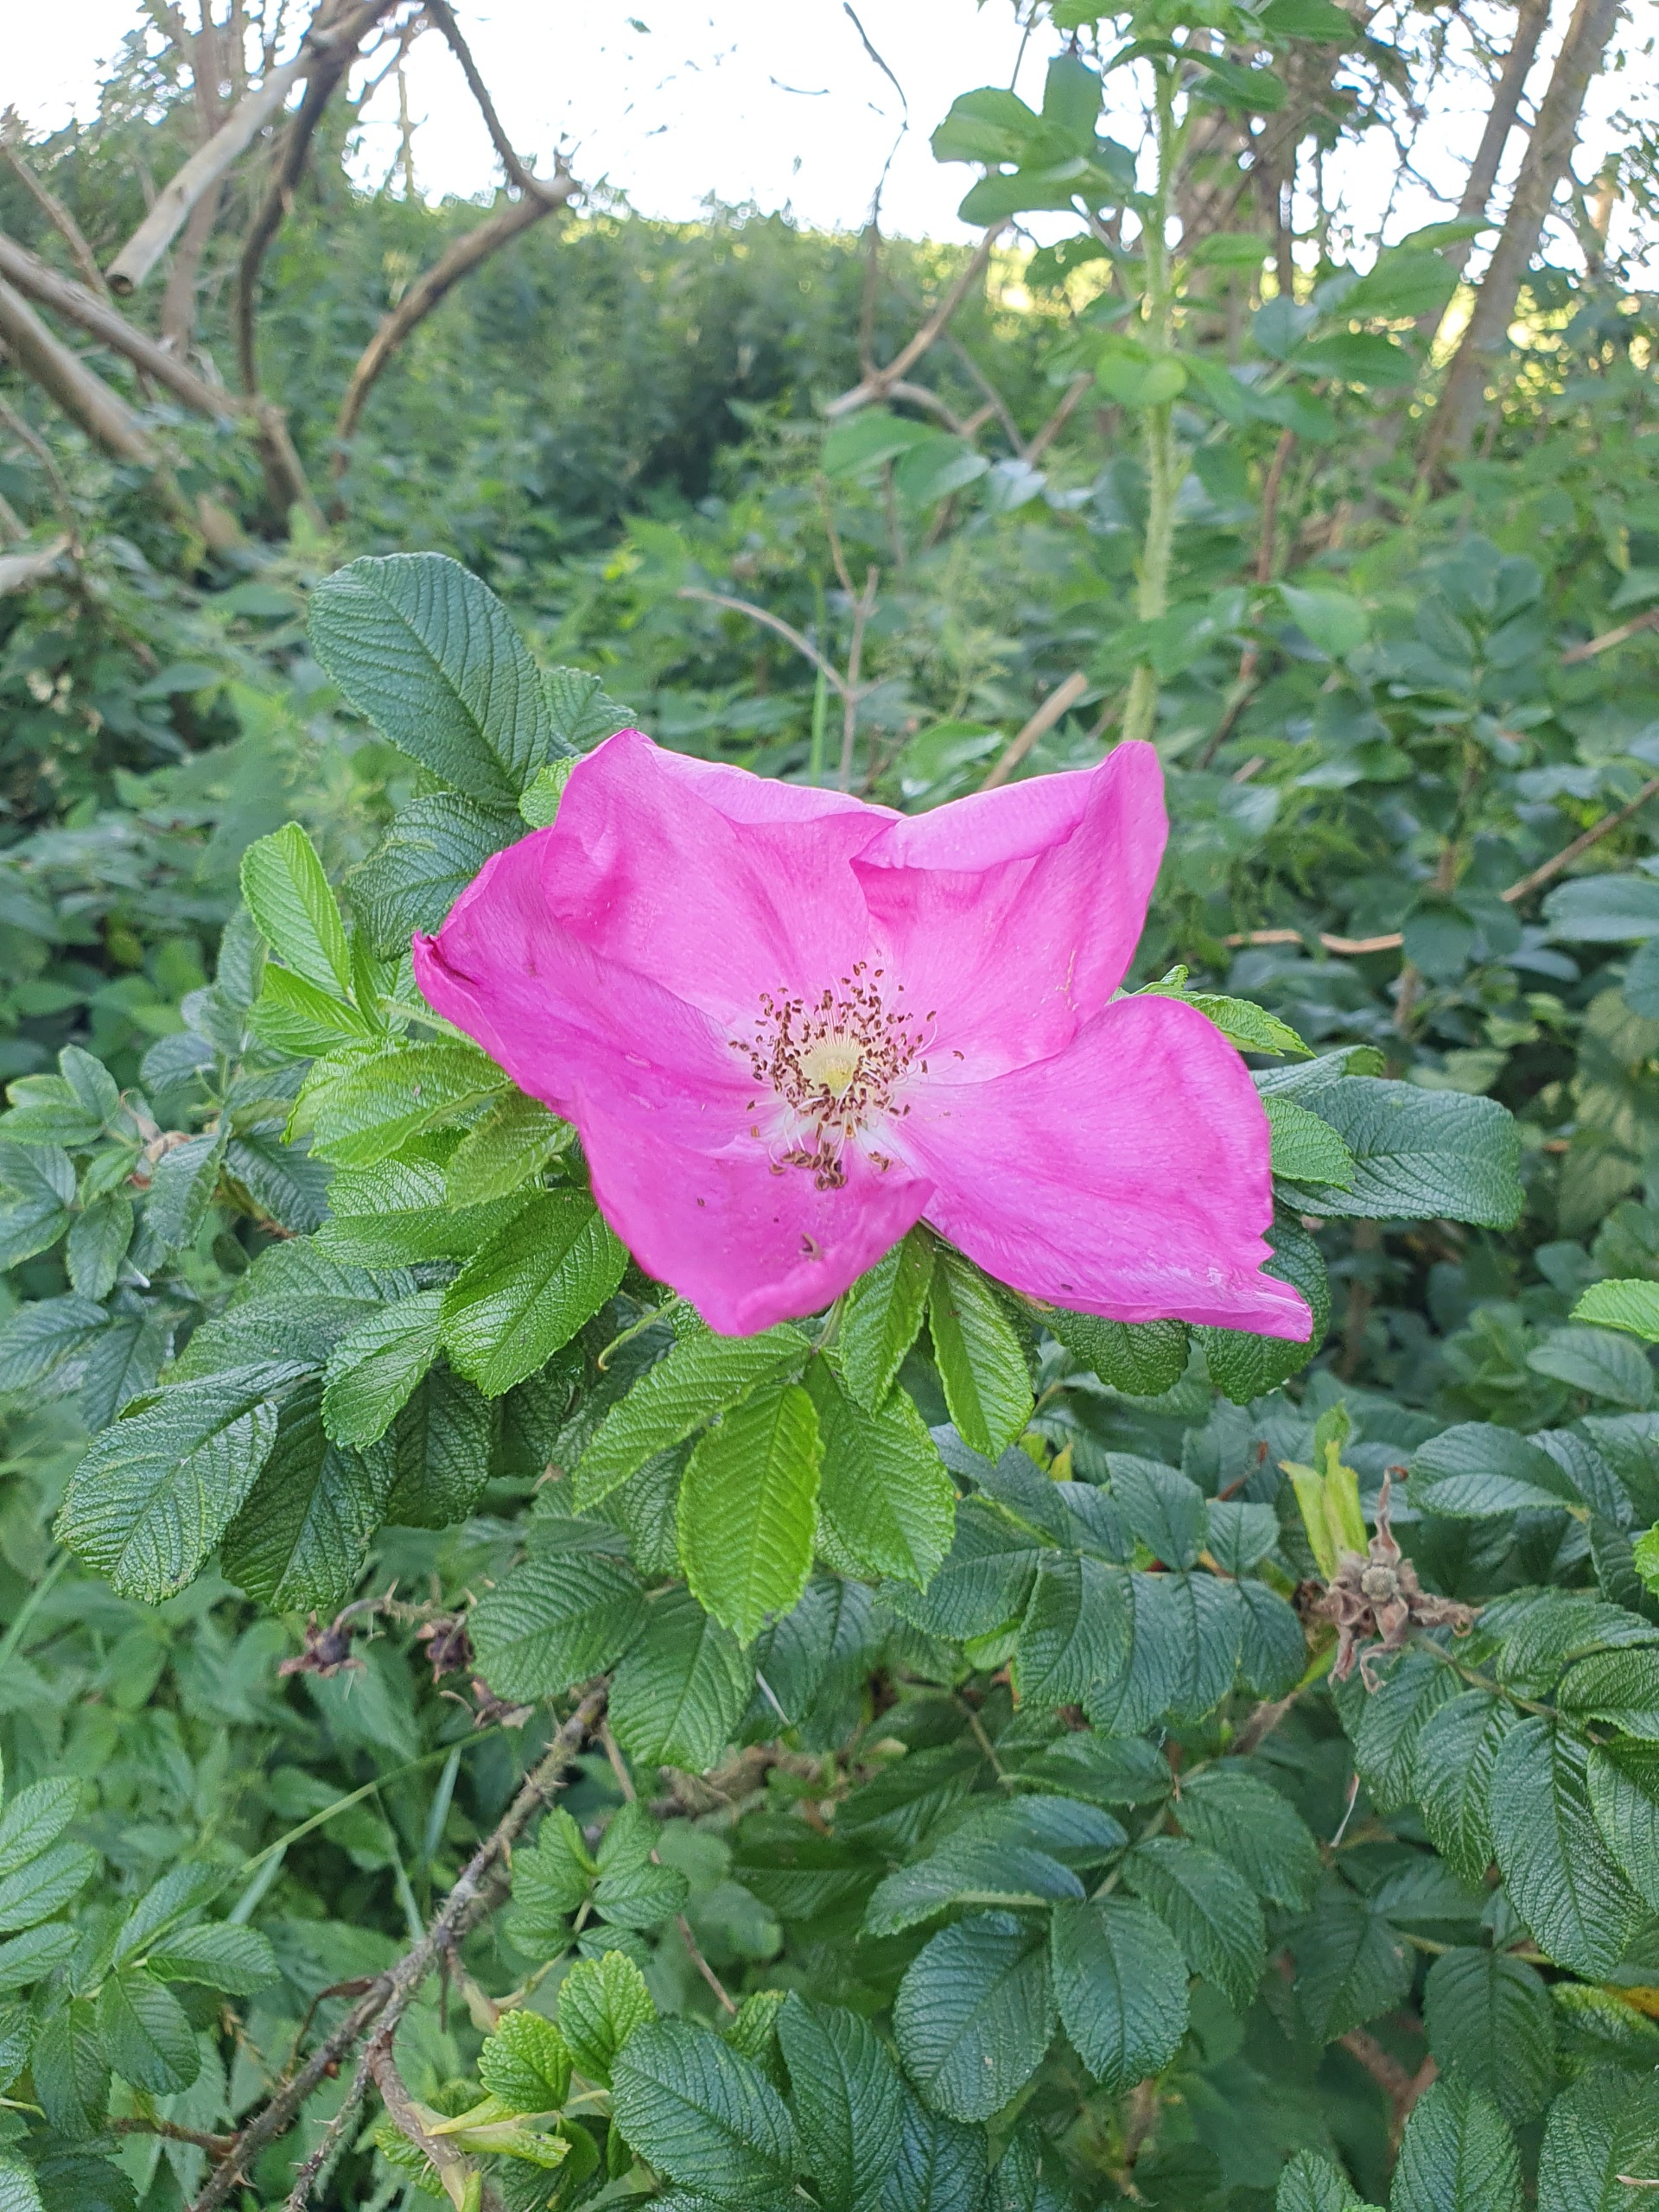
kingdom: Plantae
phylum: Tracheophyta
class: Magnoliopsida
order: Rosales
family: Rosaceae
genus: Rosa
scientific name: Rosa rugosa
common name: Rynket rose
